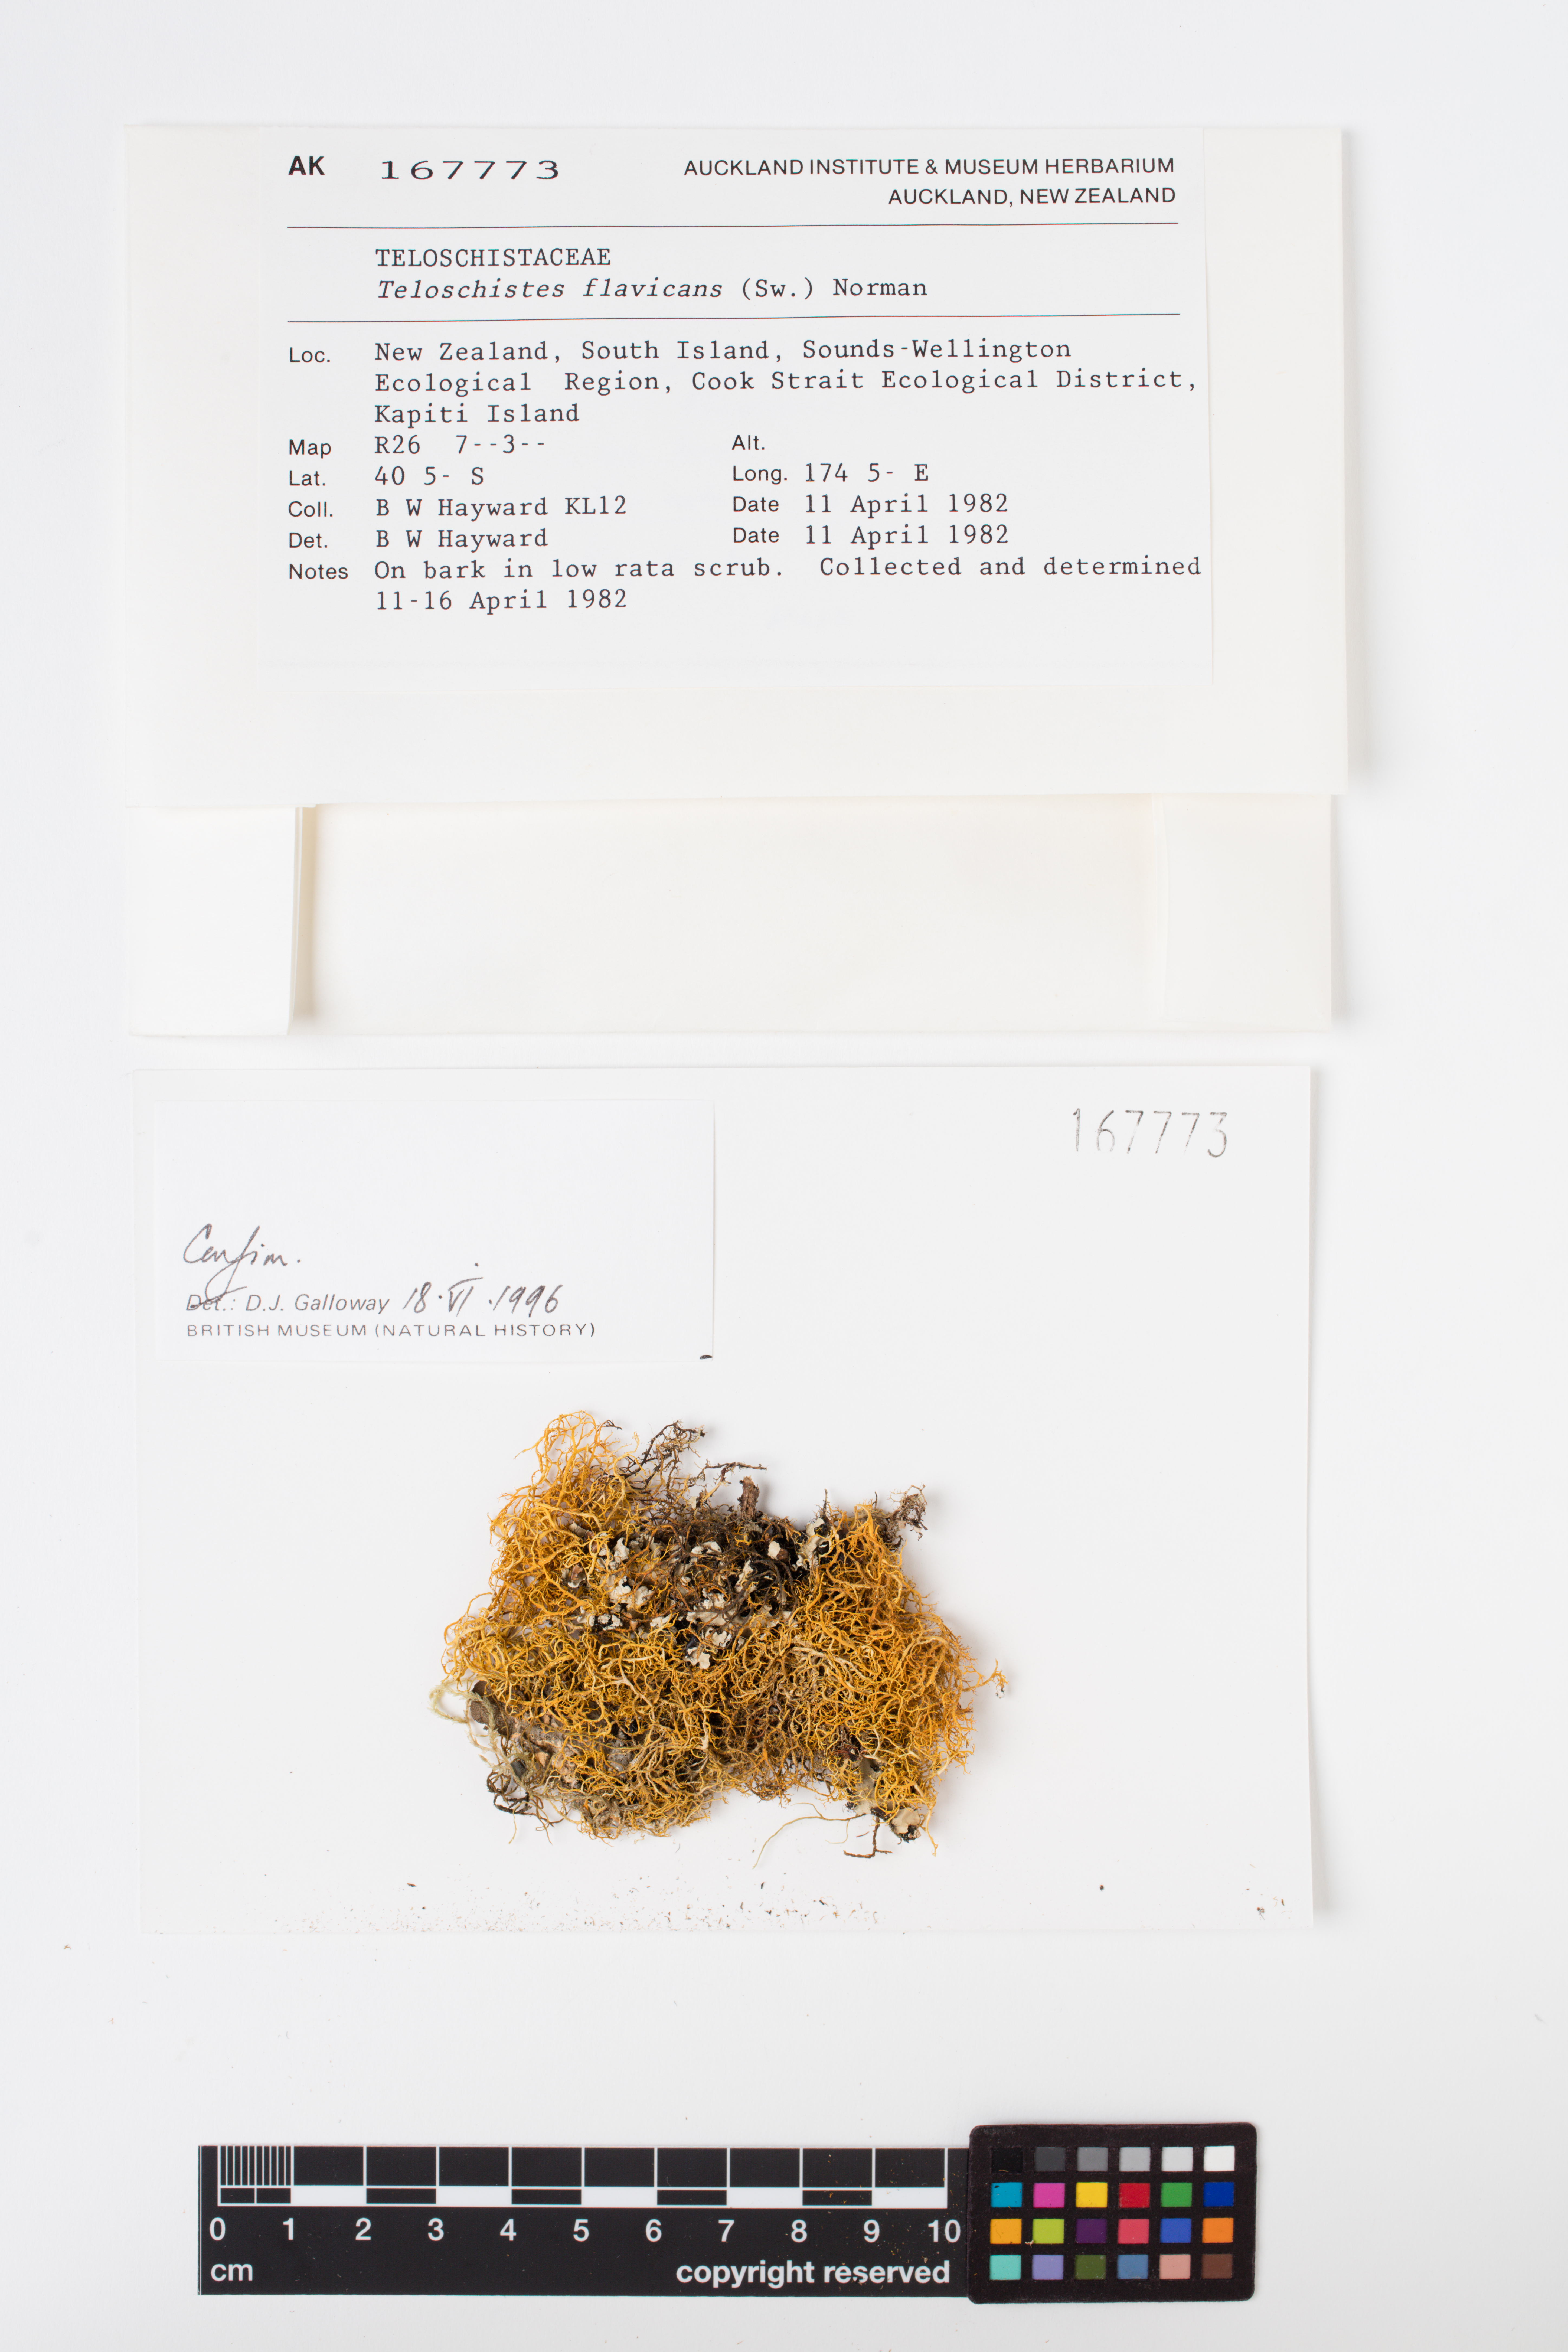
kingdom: Fungi
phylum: Ascomycota
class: Lecanoromycetes
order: Teloschistales
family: Teloschistaceae
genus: Teloschistes
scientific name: Teloschistes flavicans
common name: Golden hair-lichen
